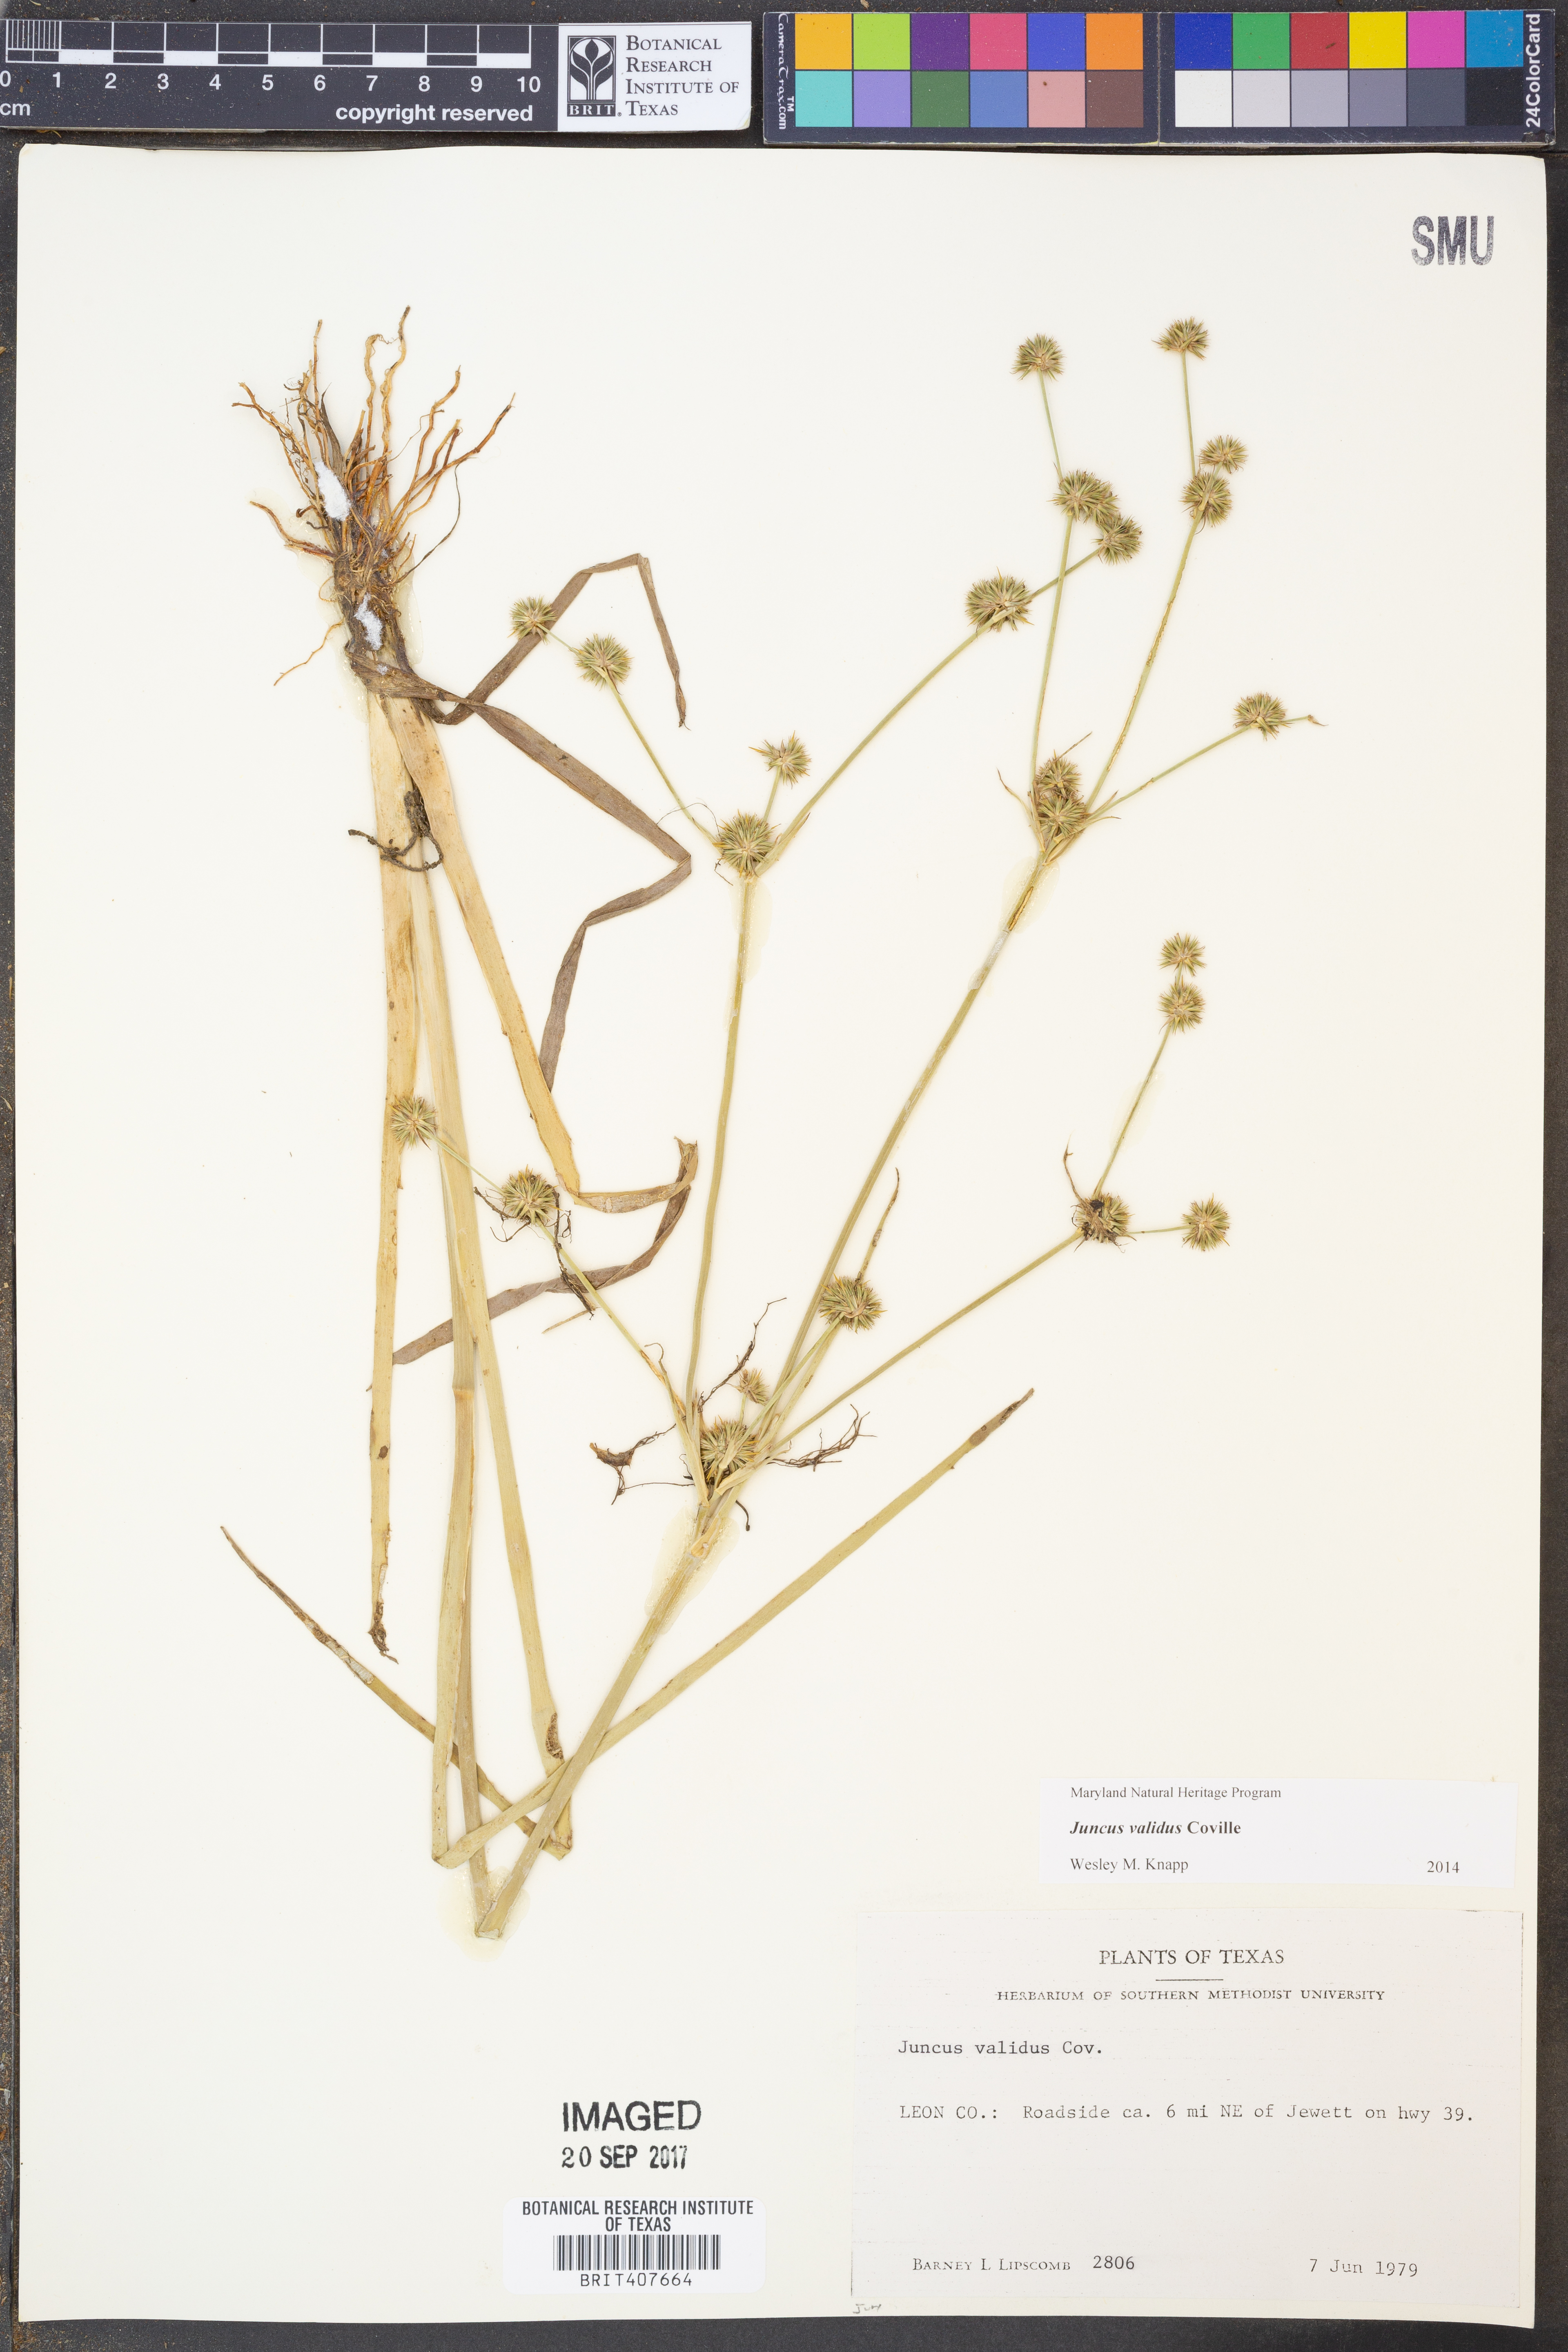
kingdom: Plantae
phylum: Tracheophyta
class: Liliopsida
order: Poales
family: Juncaceae
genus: Juncus
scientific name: Juncus validus
